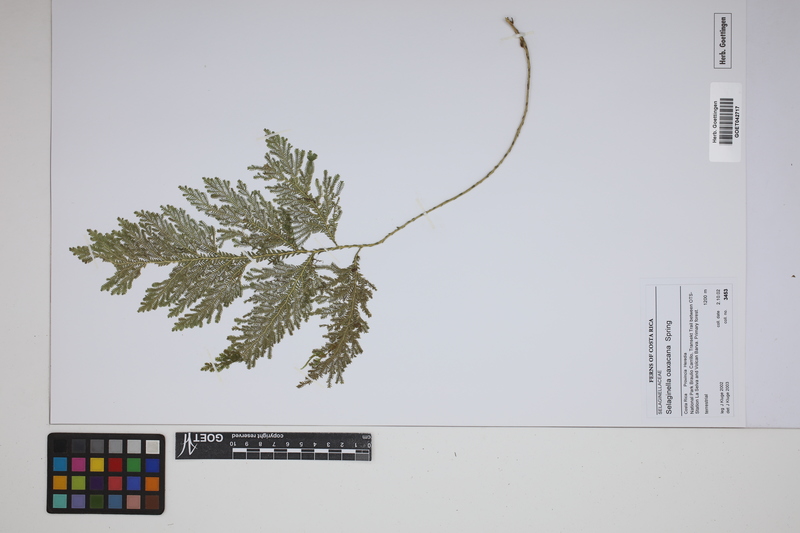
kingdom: Plantae
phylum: Tracheophyta
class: Lycopodiopsida
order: Selaginellales
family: Selaginellaceae
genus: Selaginella
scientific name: Selaginella oaxacana
